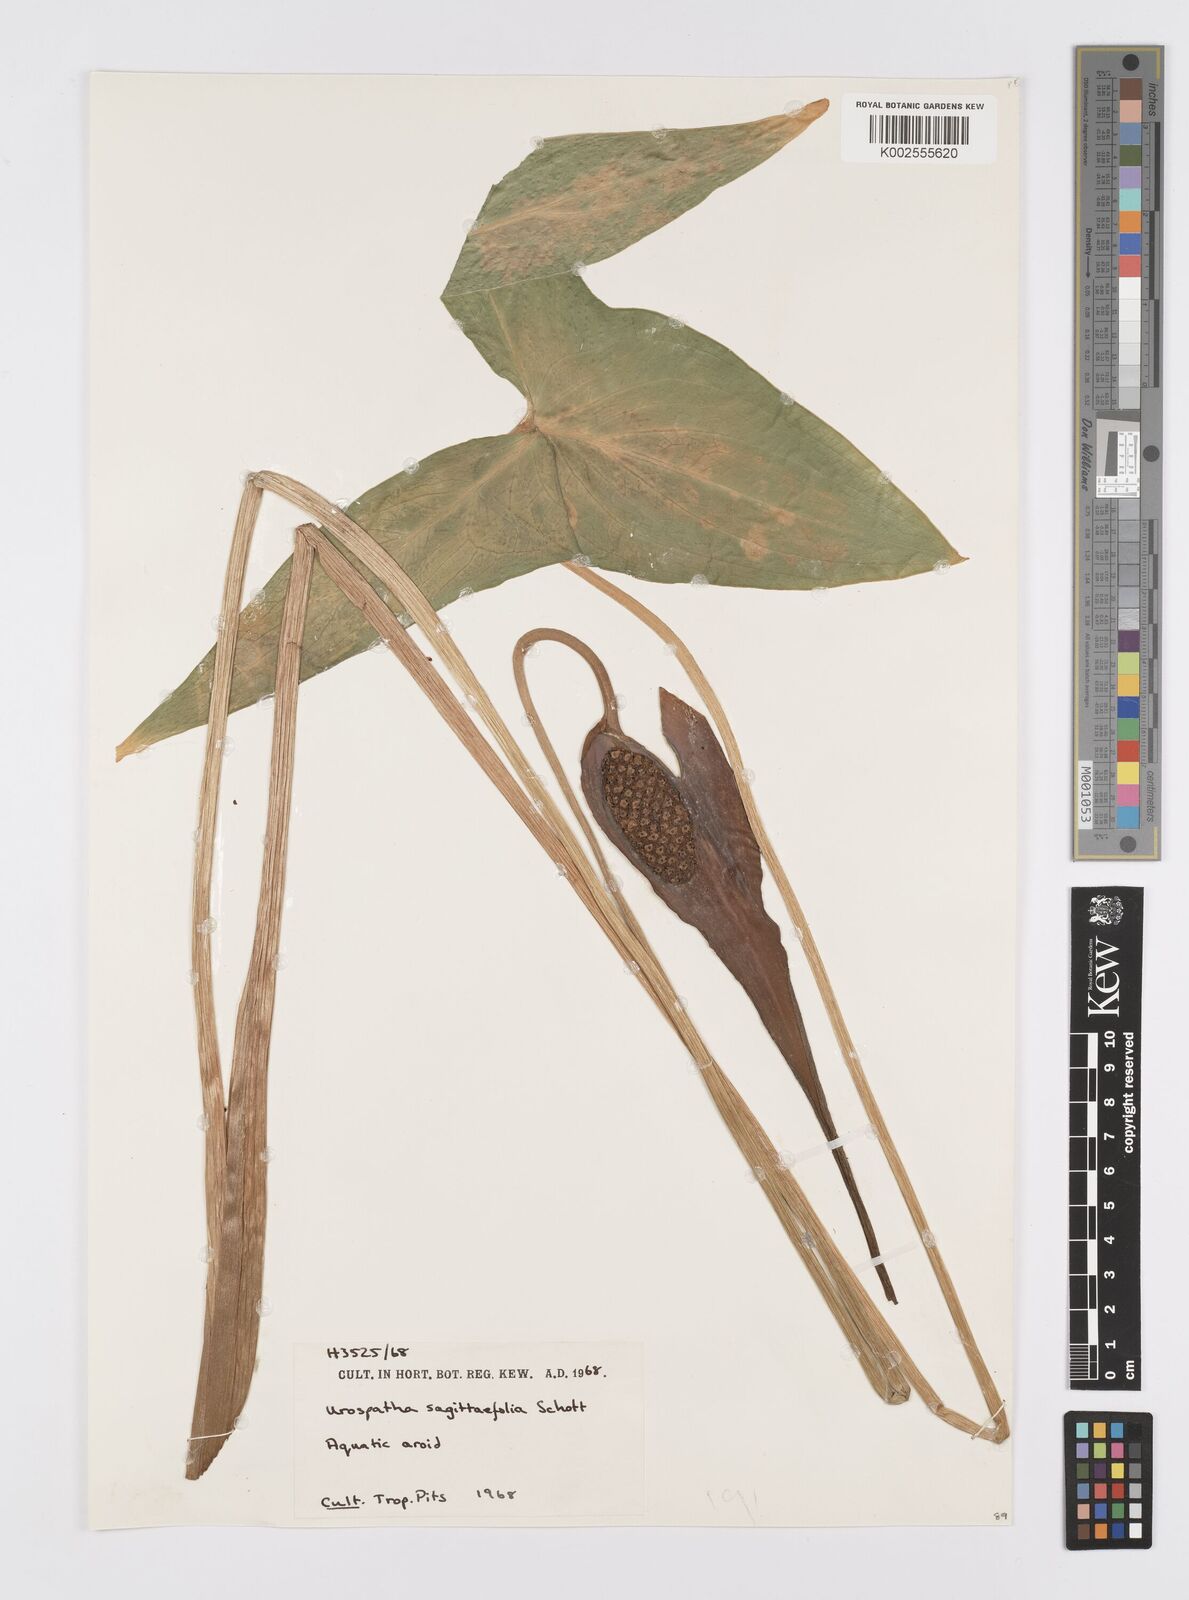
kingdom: Plantae
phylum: Tracheophyta
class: Liliopsida
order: Alismatales
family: Araceae
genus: Urospatha
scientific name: Urospatha sagittifolia
